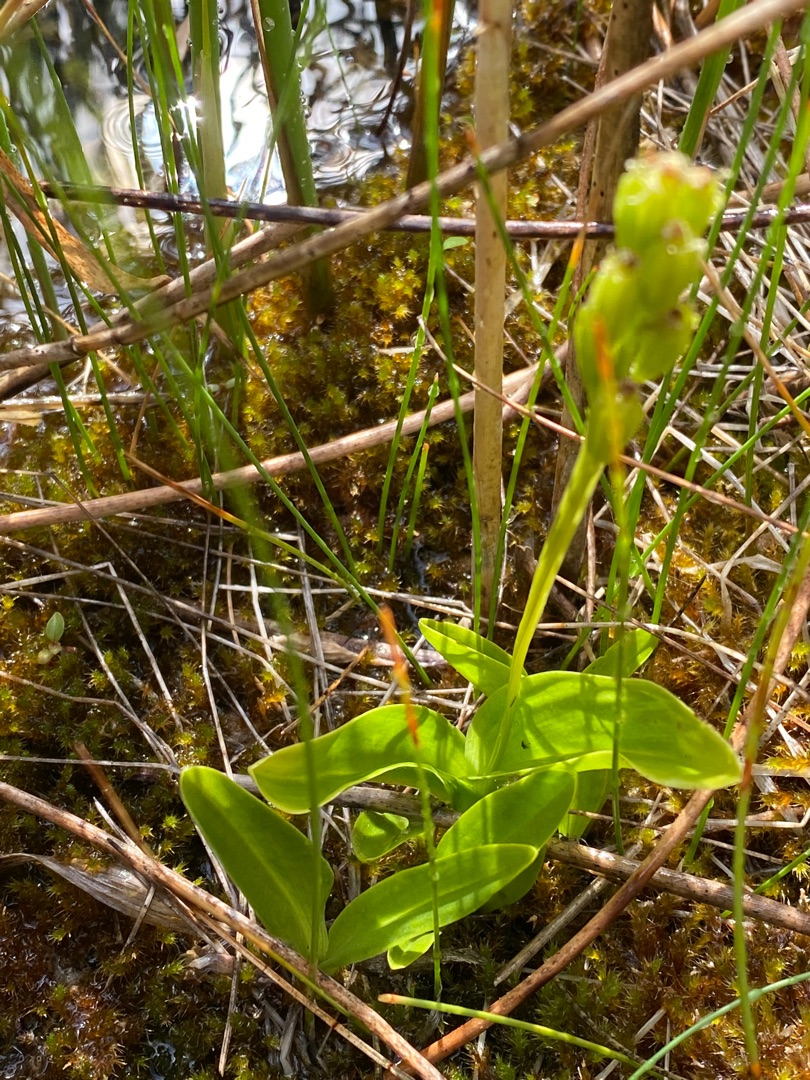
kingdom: Animalia
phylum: Arthropoda
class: Insecta
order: Coleoptera
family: Curculionidae
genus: Liparis
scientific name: Liparis loeselii
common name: Mygblomst
